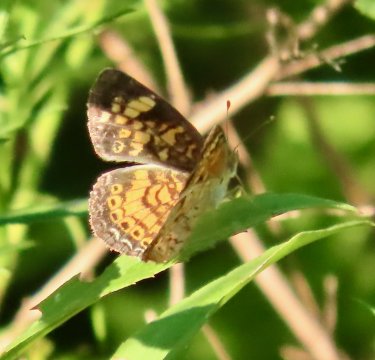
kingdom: Animalia
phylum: Arthropoda
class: Insecta
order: Lepidoptera
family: Nymphalidae
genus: Phyciodes
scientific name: Phyciodes tharos
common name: Pearl Crescent
